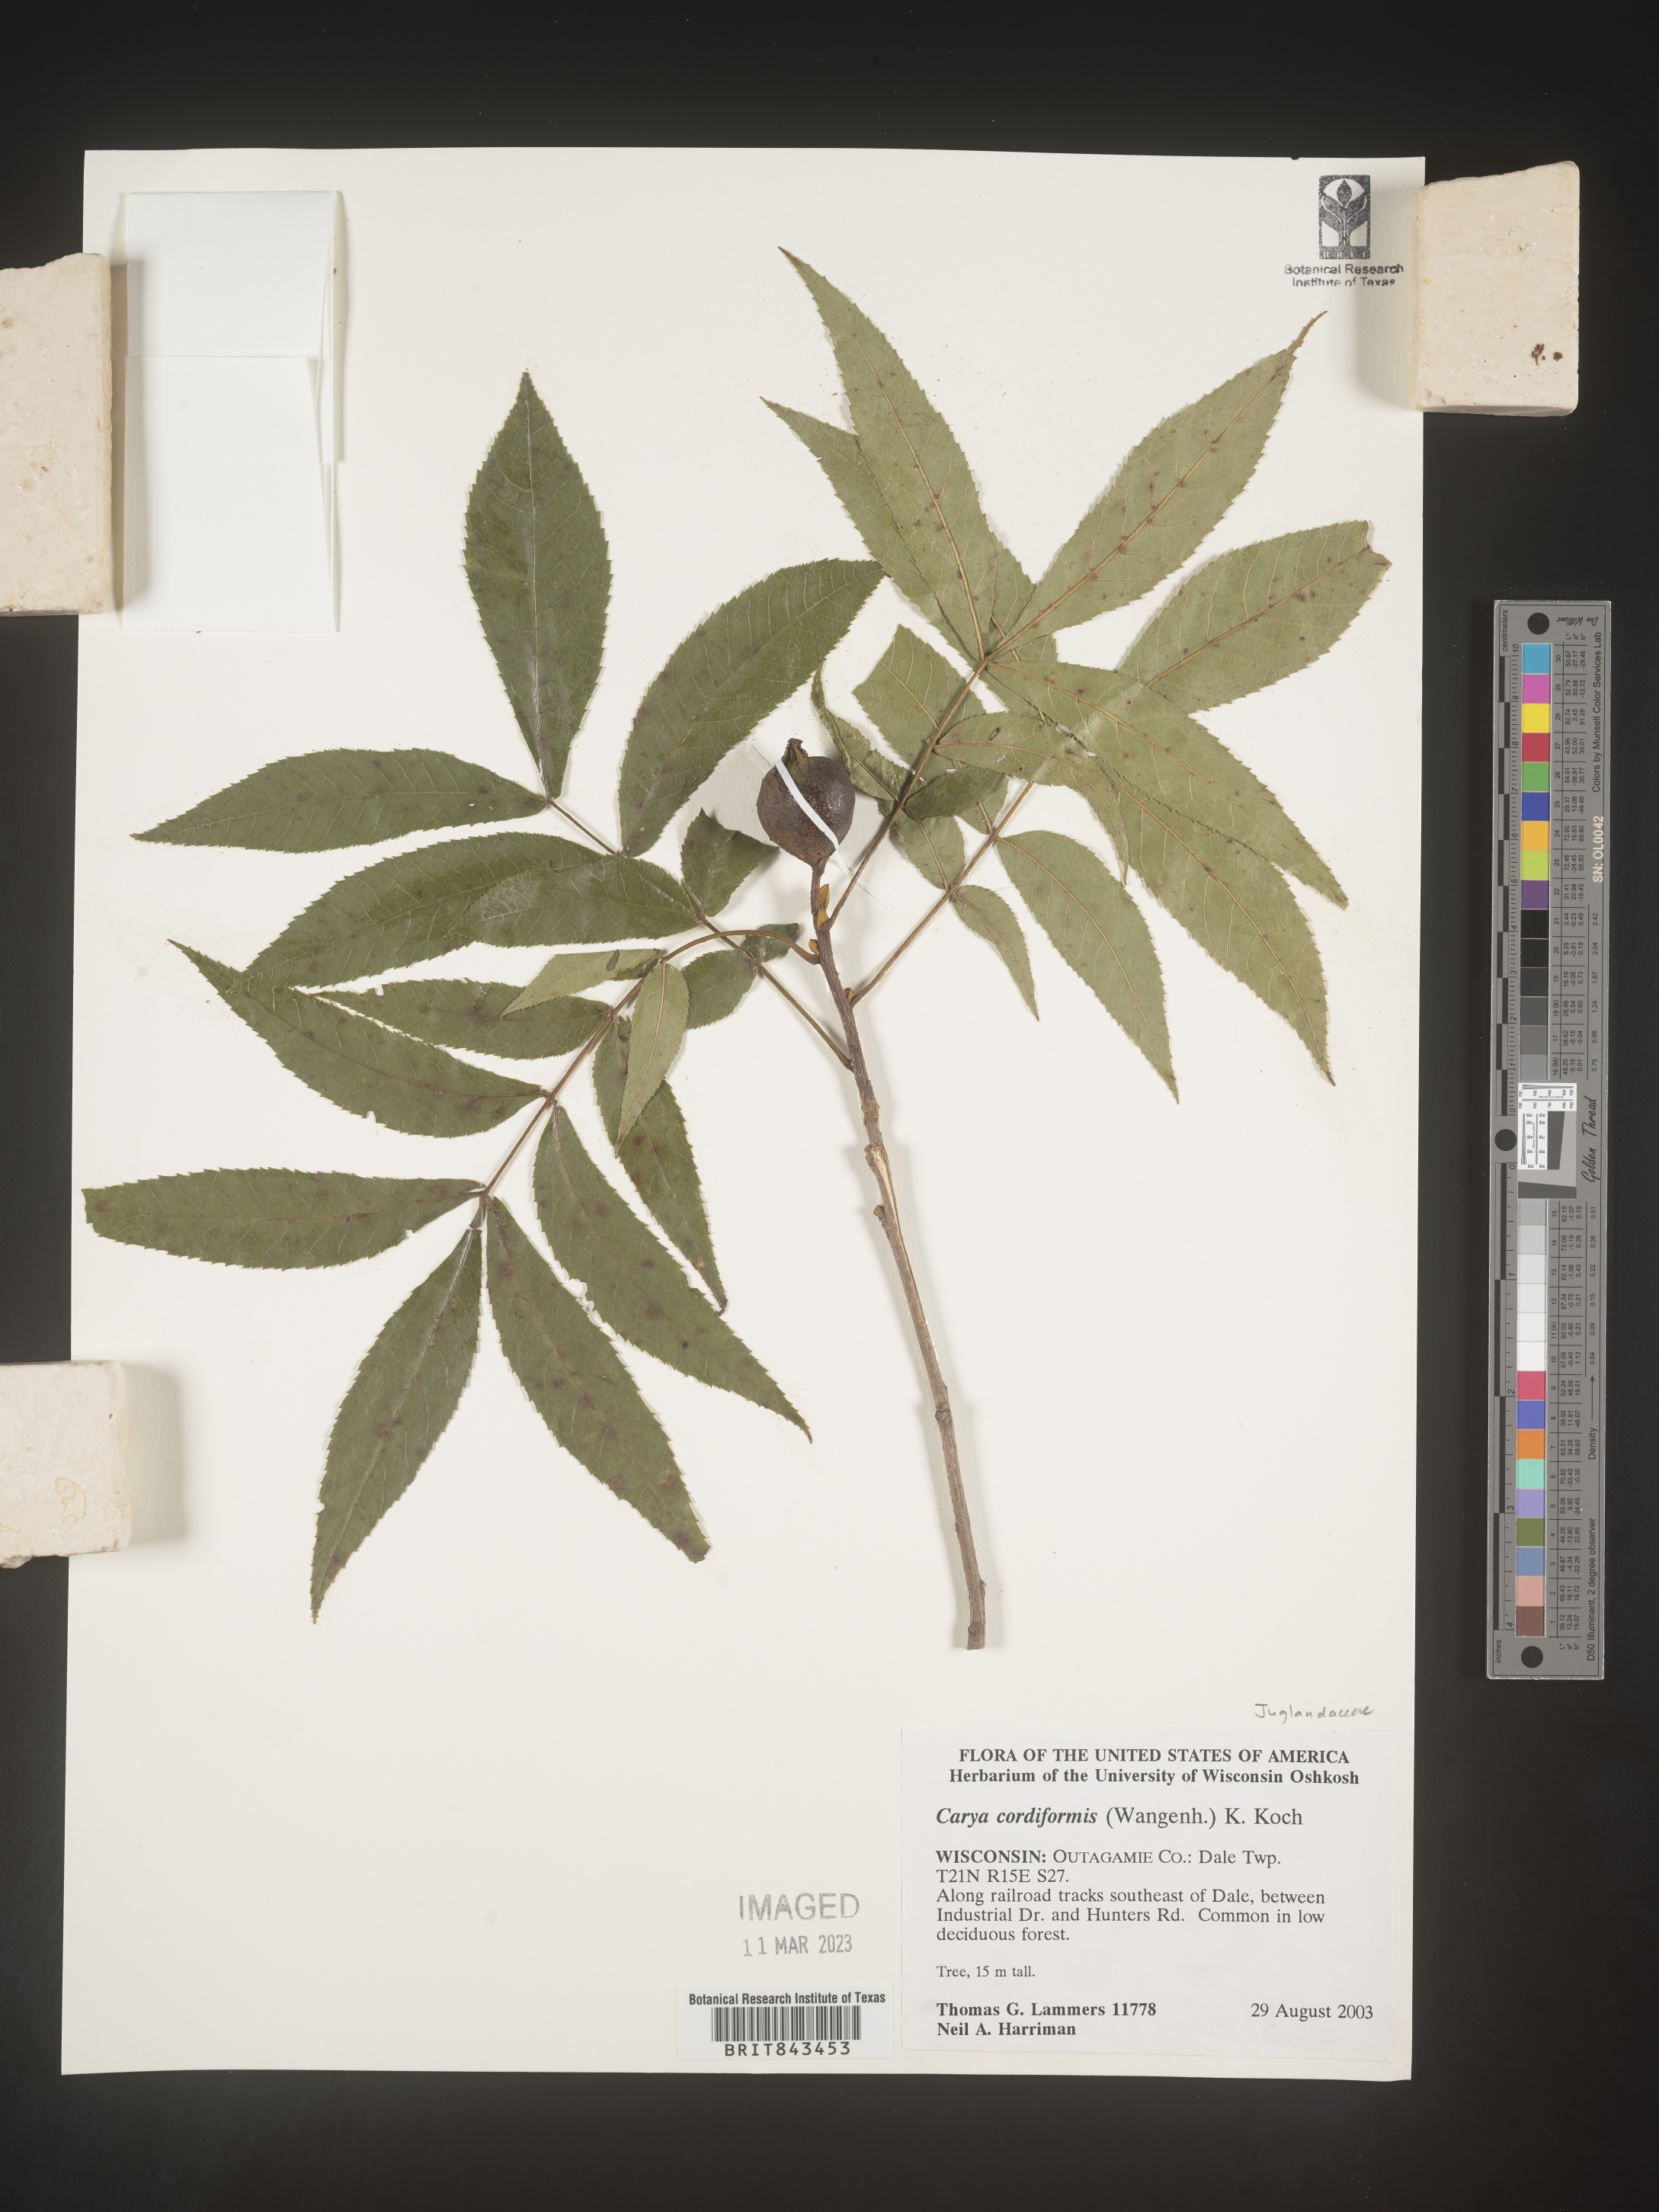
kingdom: Plantae
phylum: Tracheophyta
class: Magnoliopsida
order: Fagales
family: Juglandaceae
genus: Carya
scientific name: Carya cordiformis
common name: Bitternut hickory
